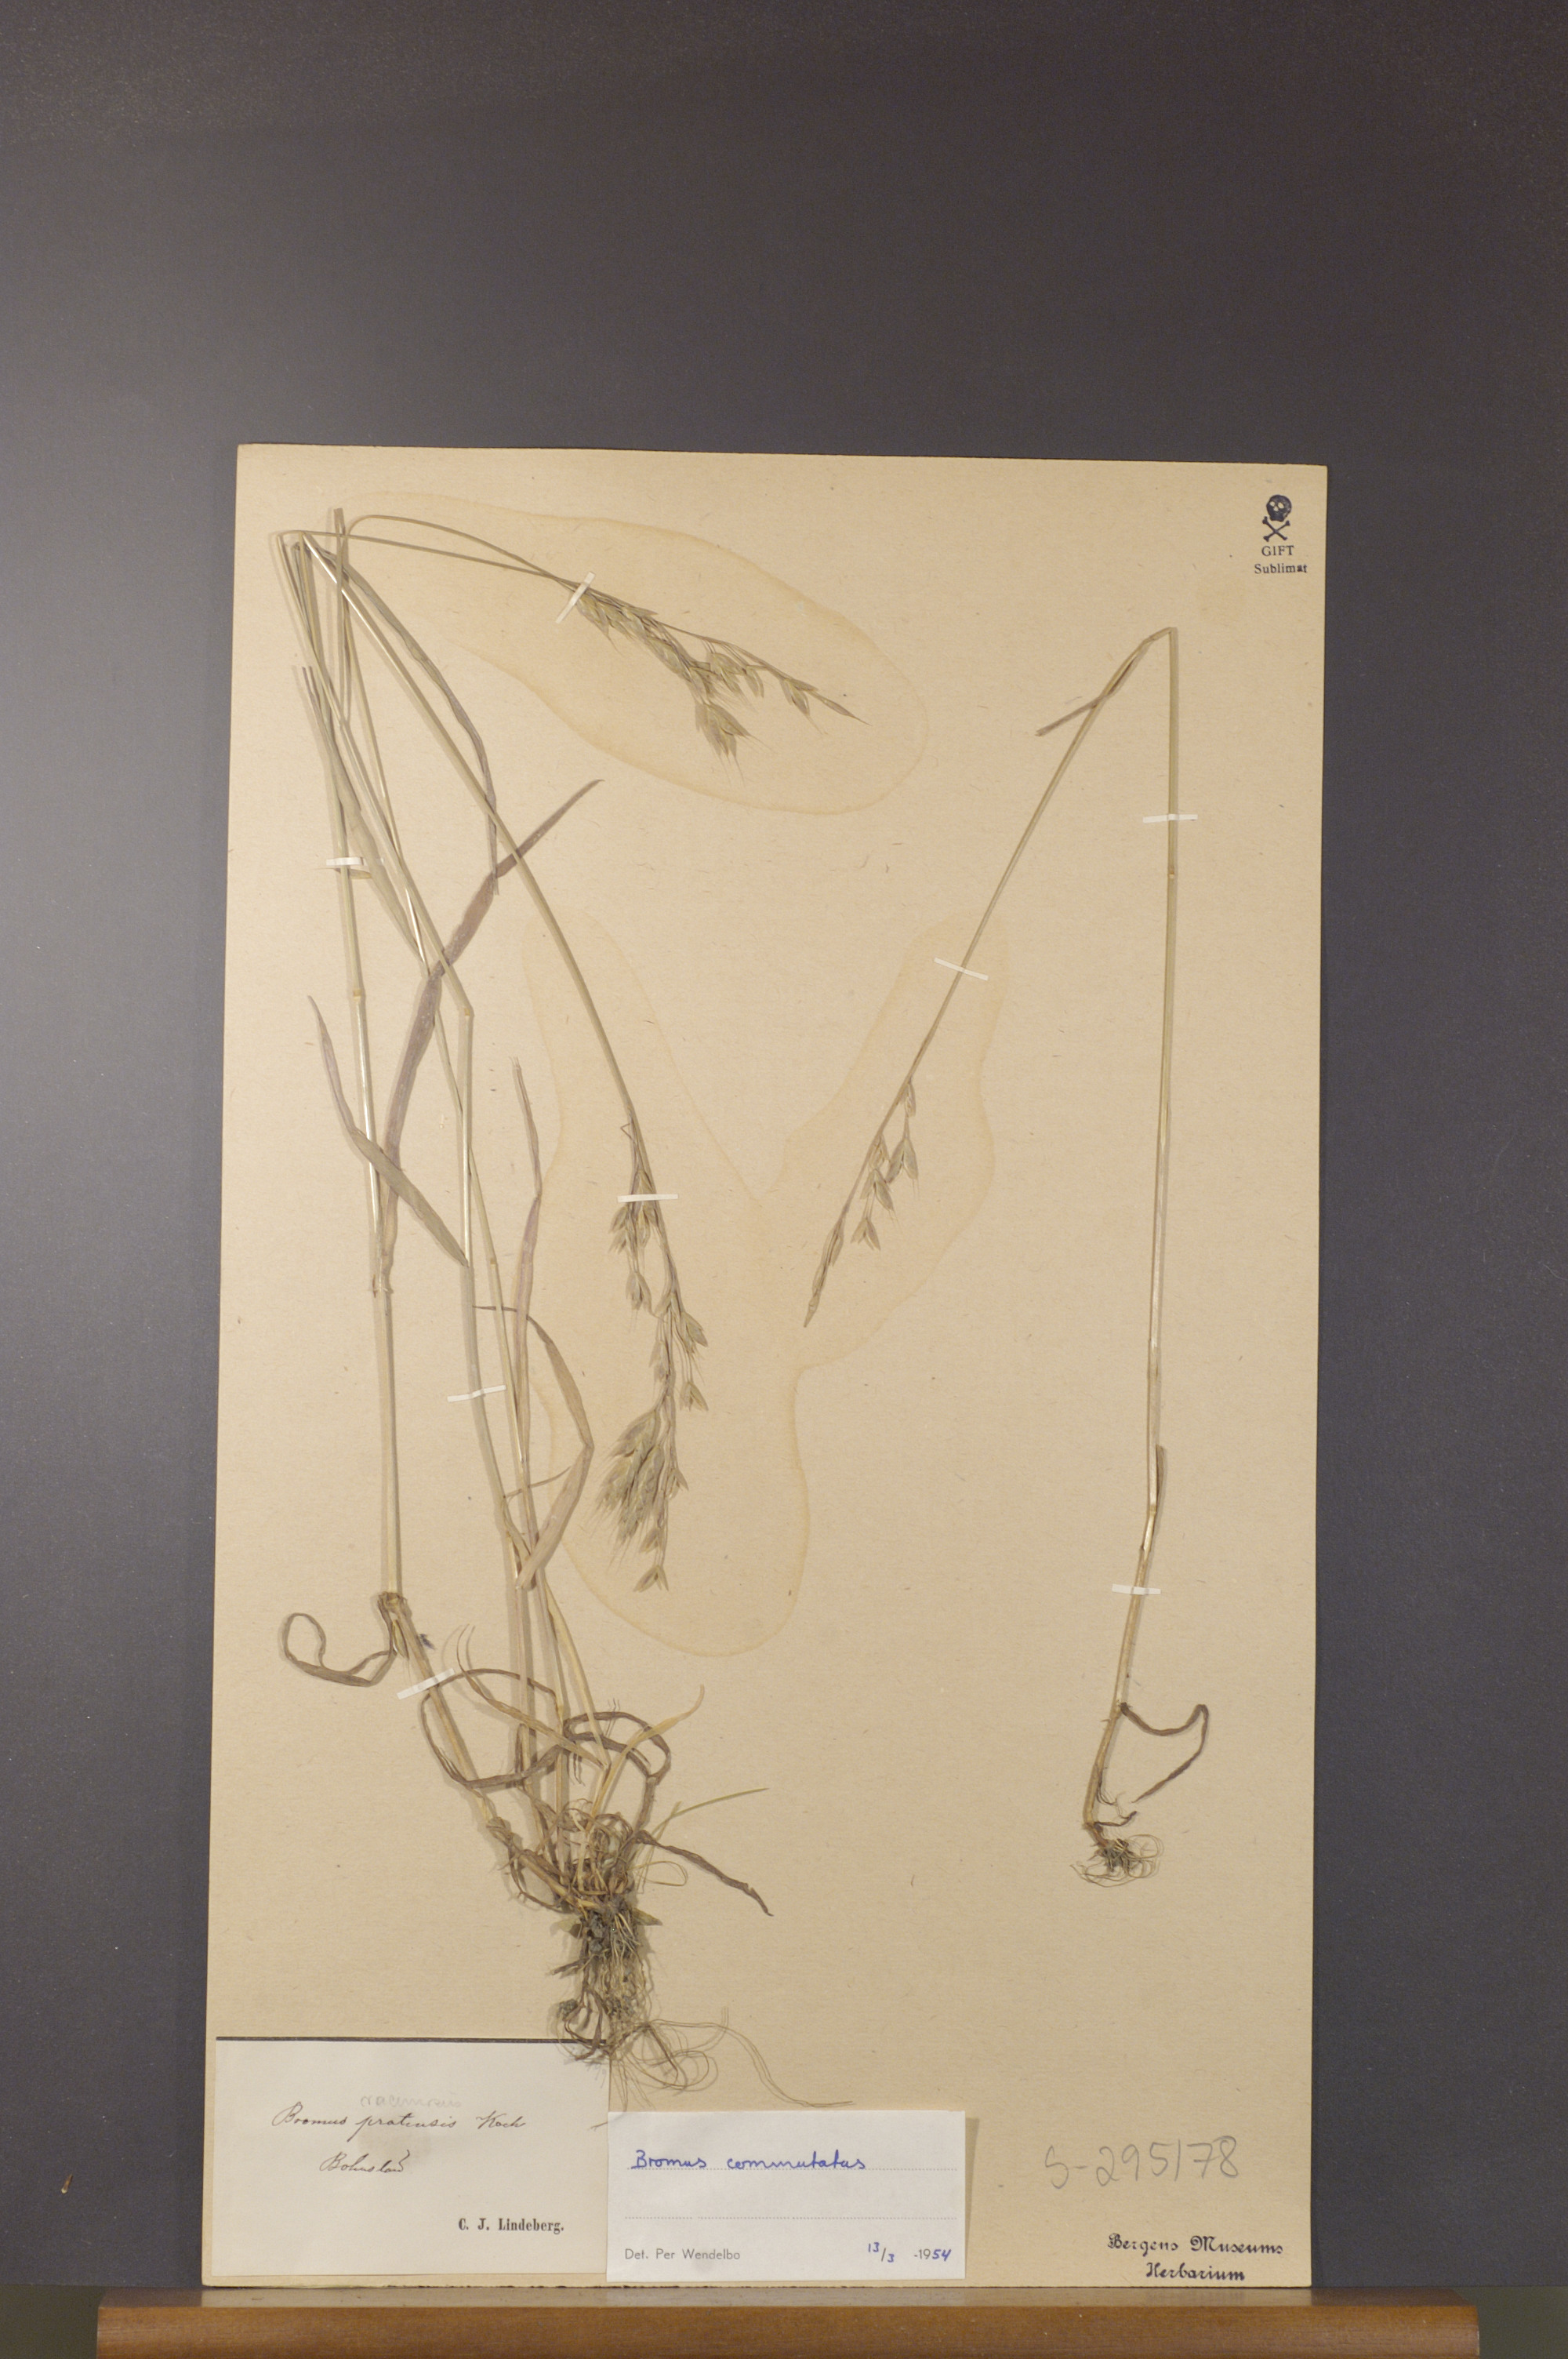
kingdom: Plantae
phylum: Tracheophyta
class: Liliopsida
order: Poales
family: Poaceae
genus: Bromus
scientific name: Bromus commutatus
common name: Meadow brome
